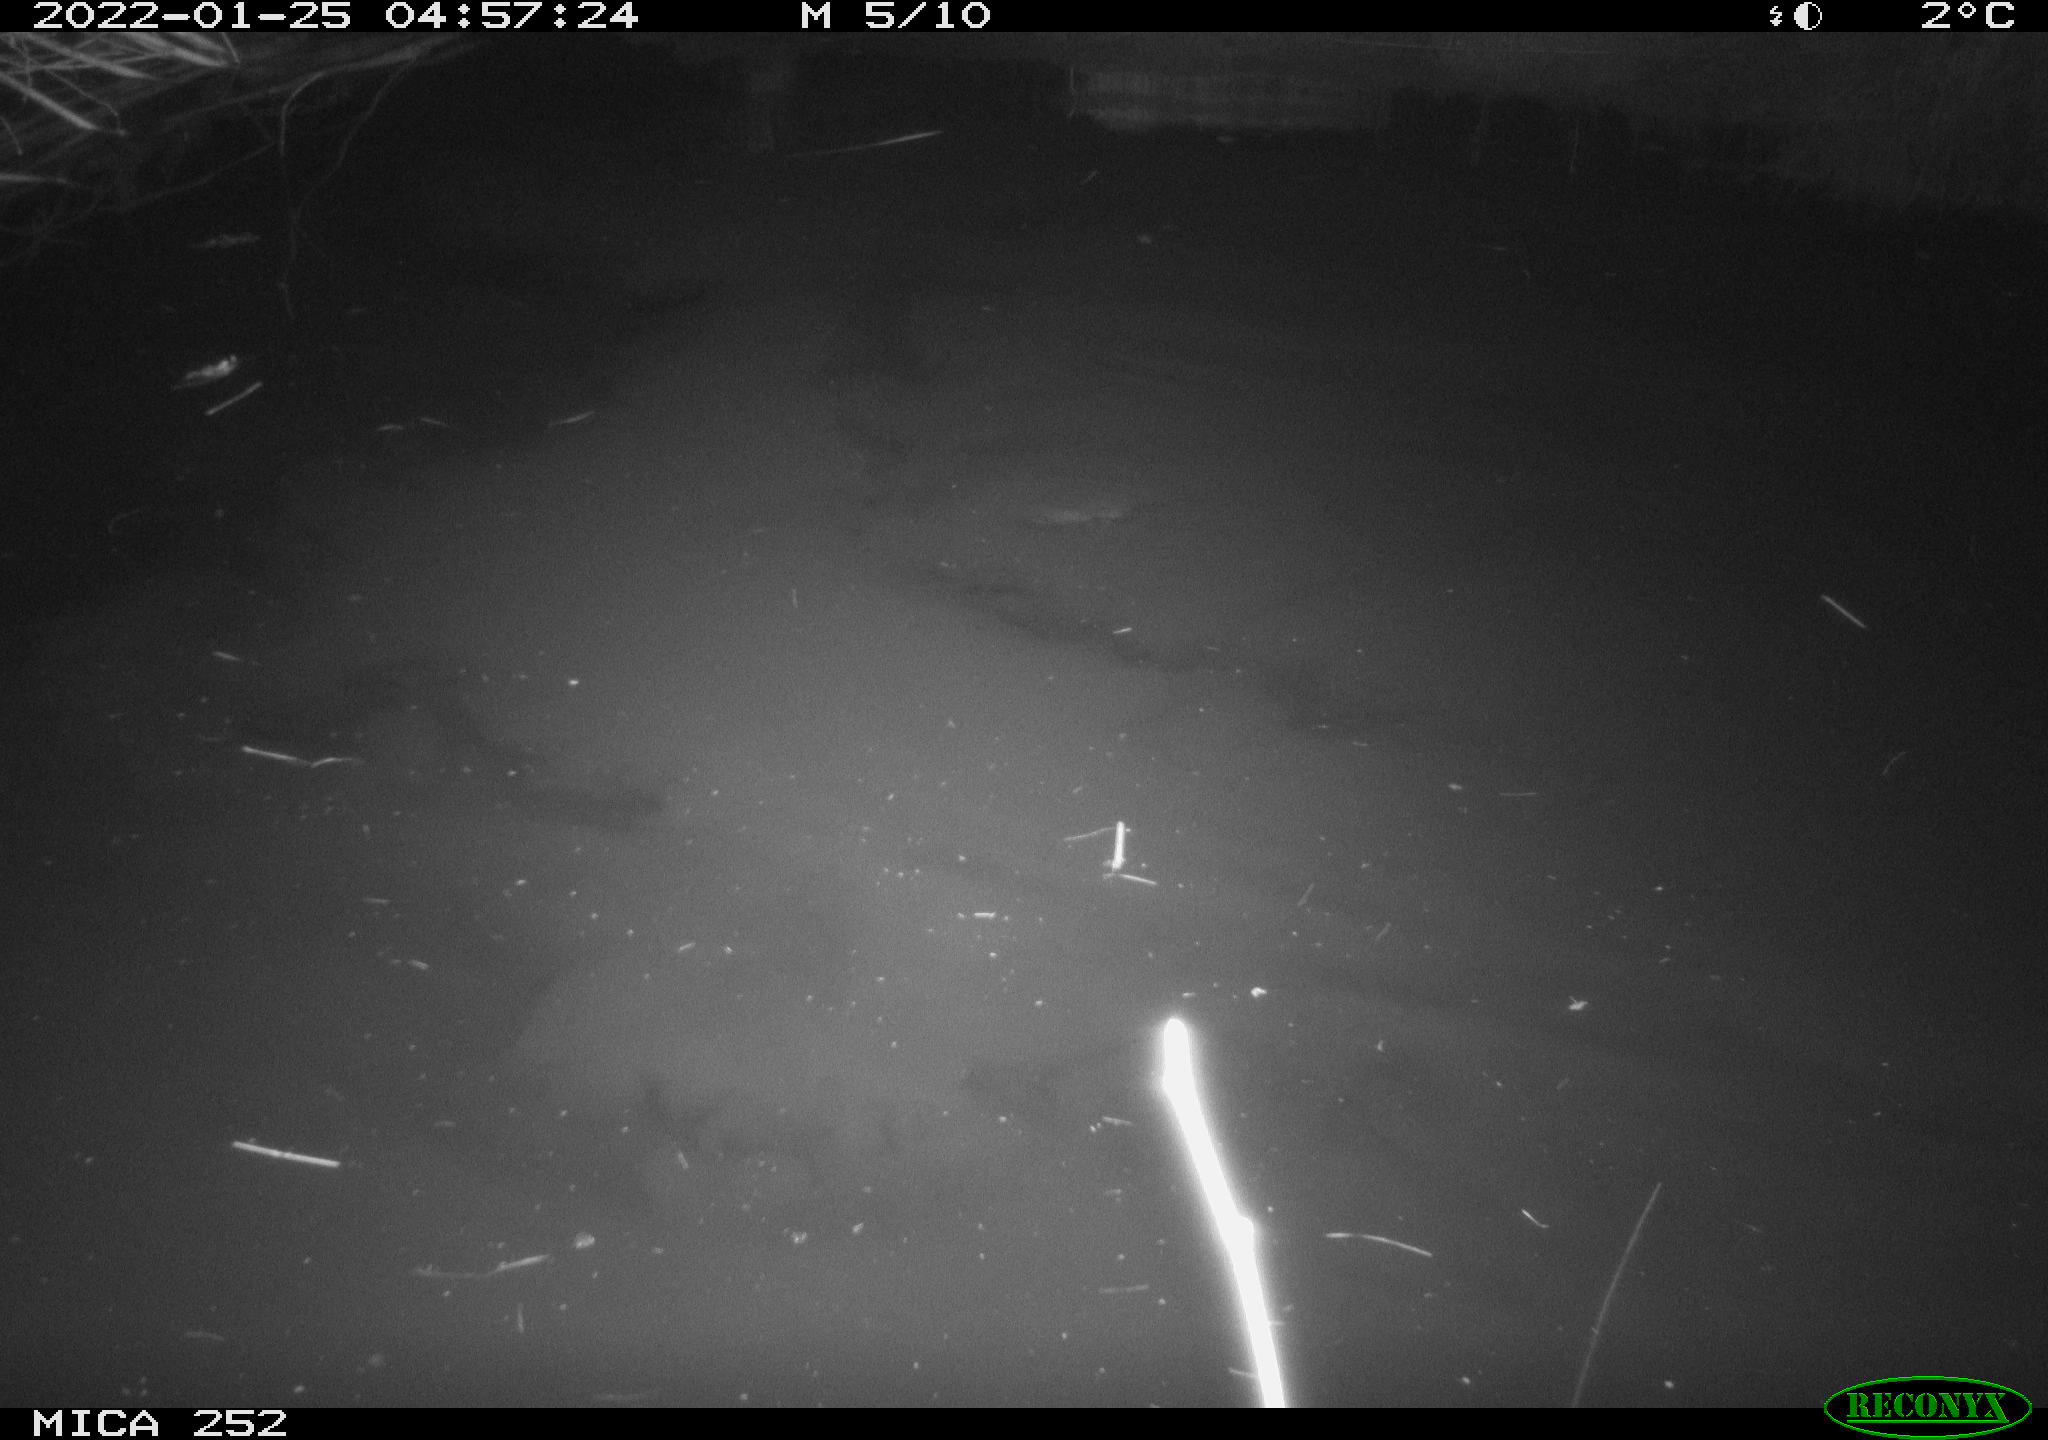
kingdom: Animalia
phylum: Chordata
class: Mammalia
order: Rodentia
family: Castoridae
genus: Castor
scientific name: Castor fiber
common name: Eurasian beaver
